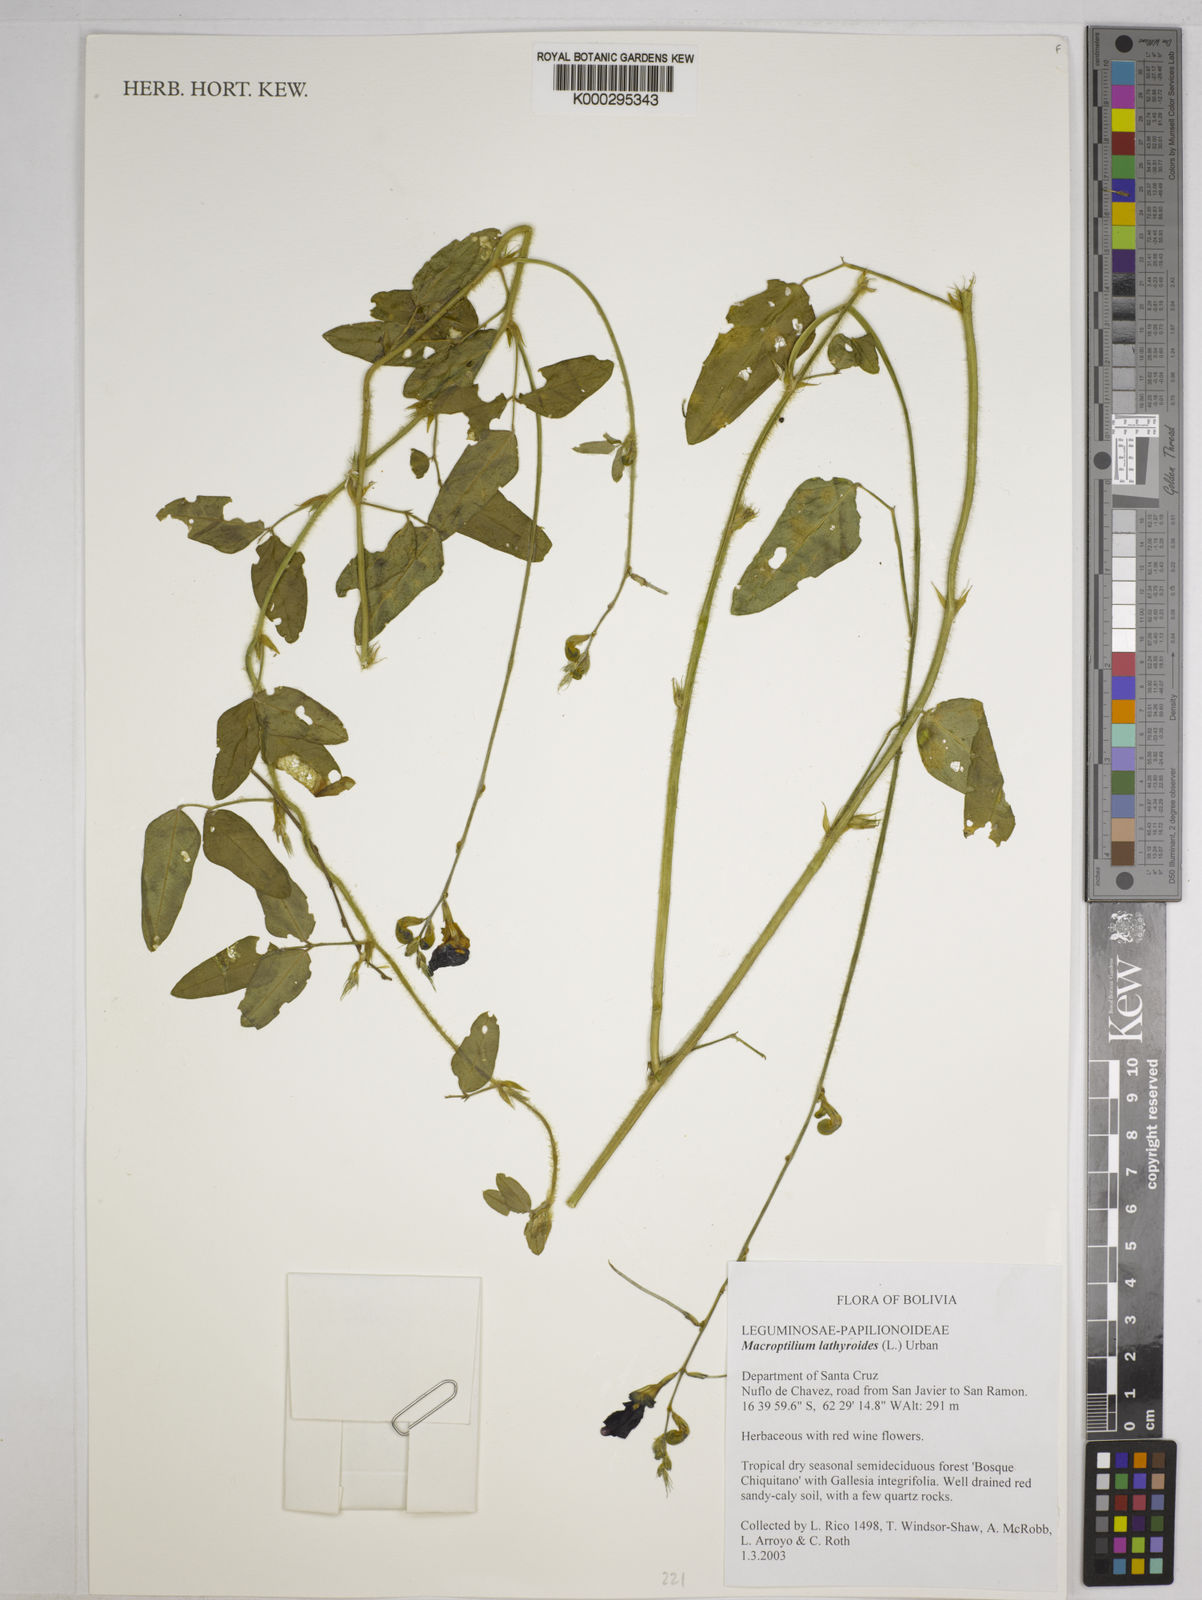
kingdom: Plantae
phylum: Tracheophyta
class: Magnoliopsida
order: Fabales
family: Fabaceae
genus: Macroptilium
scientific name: Macroptilium lathyroides
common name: Wild bushbean
